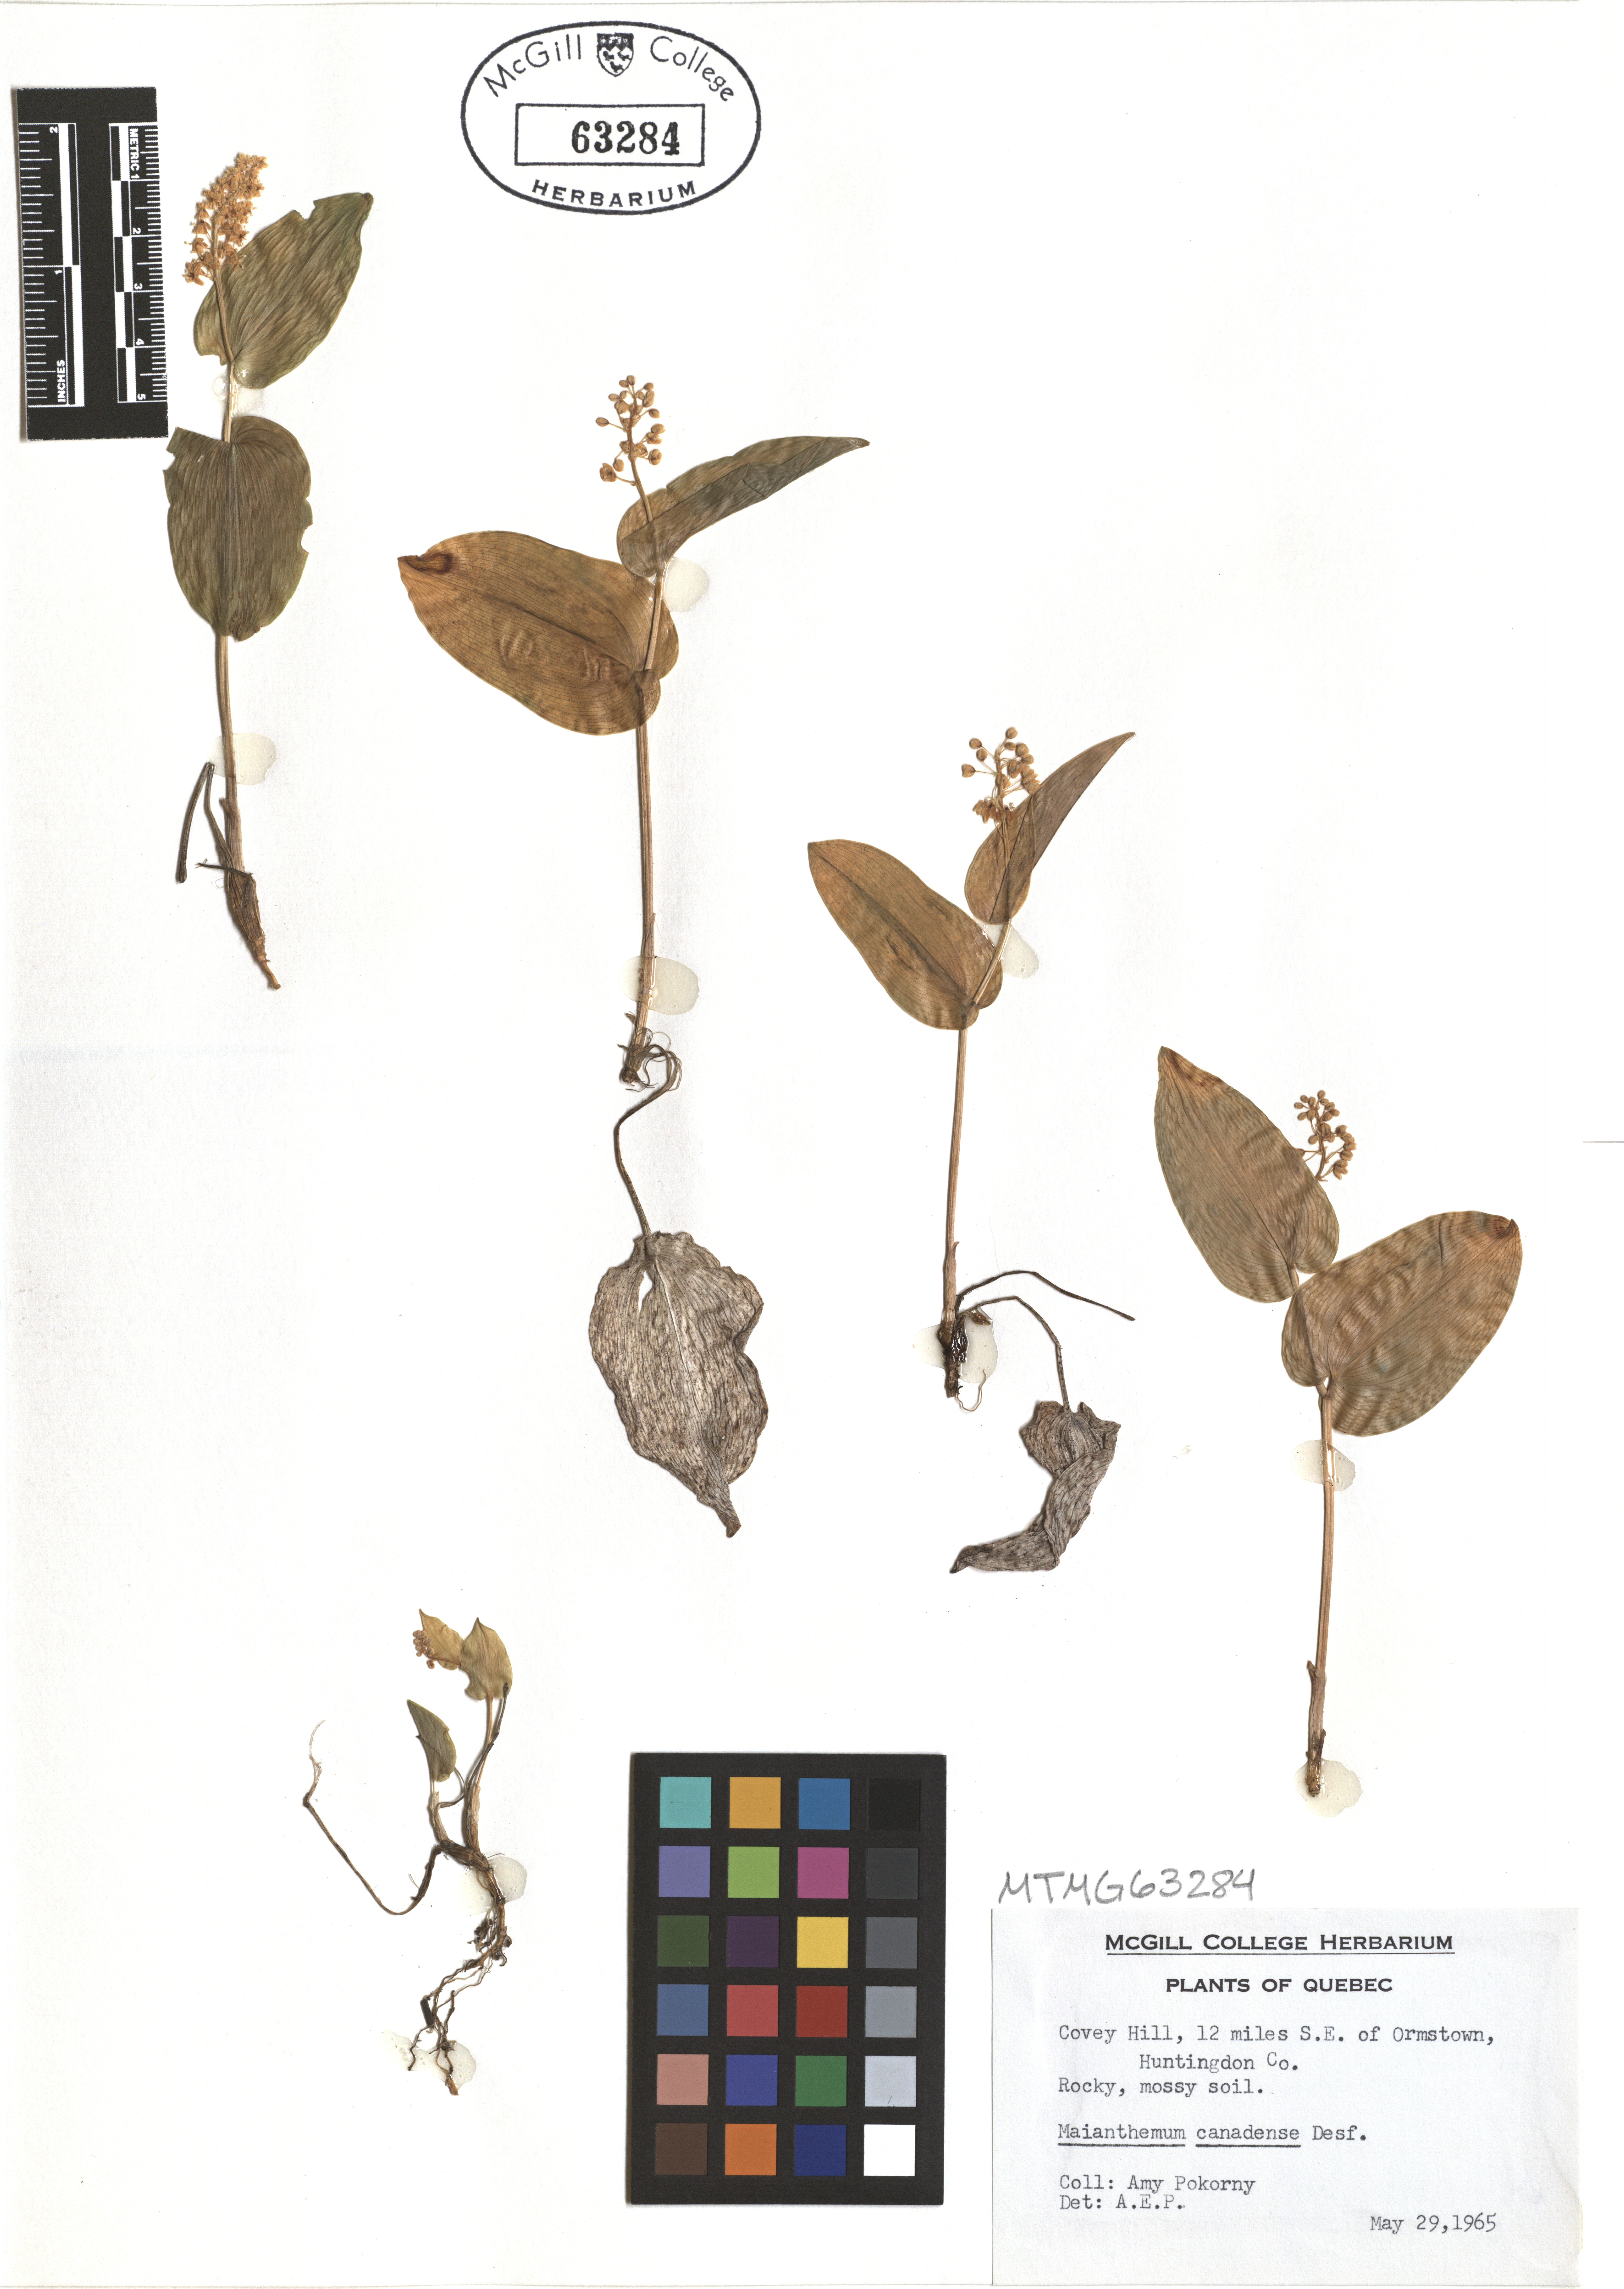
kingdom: Plantae
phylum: Tracheophyta
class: Liliopsida
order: Asparagales
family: Asparagaceae
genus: Maianthemum
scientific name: Maianthemum canadense
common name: False lily-of-the-valley
